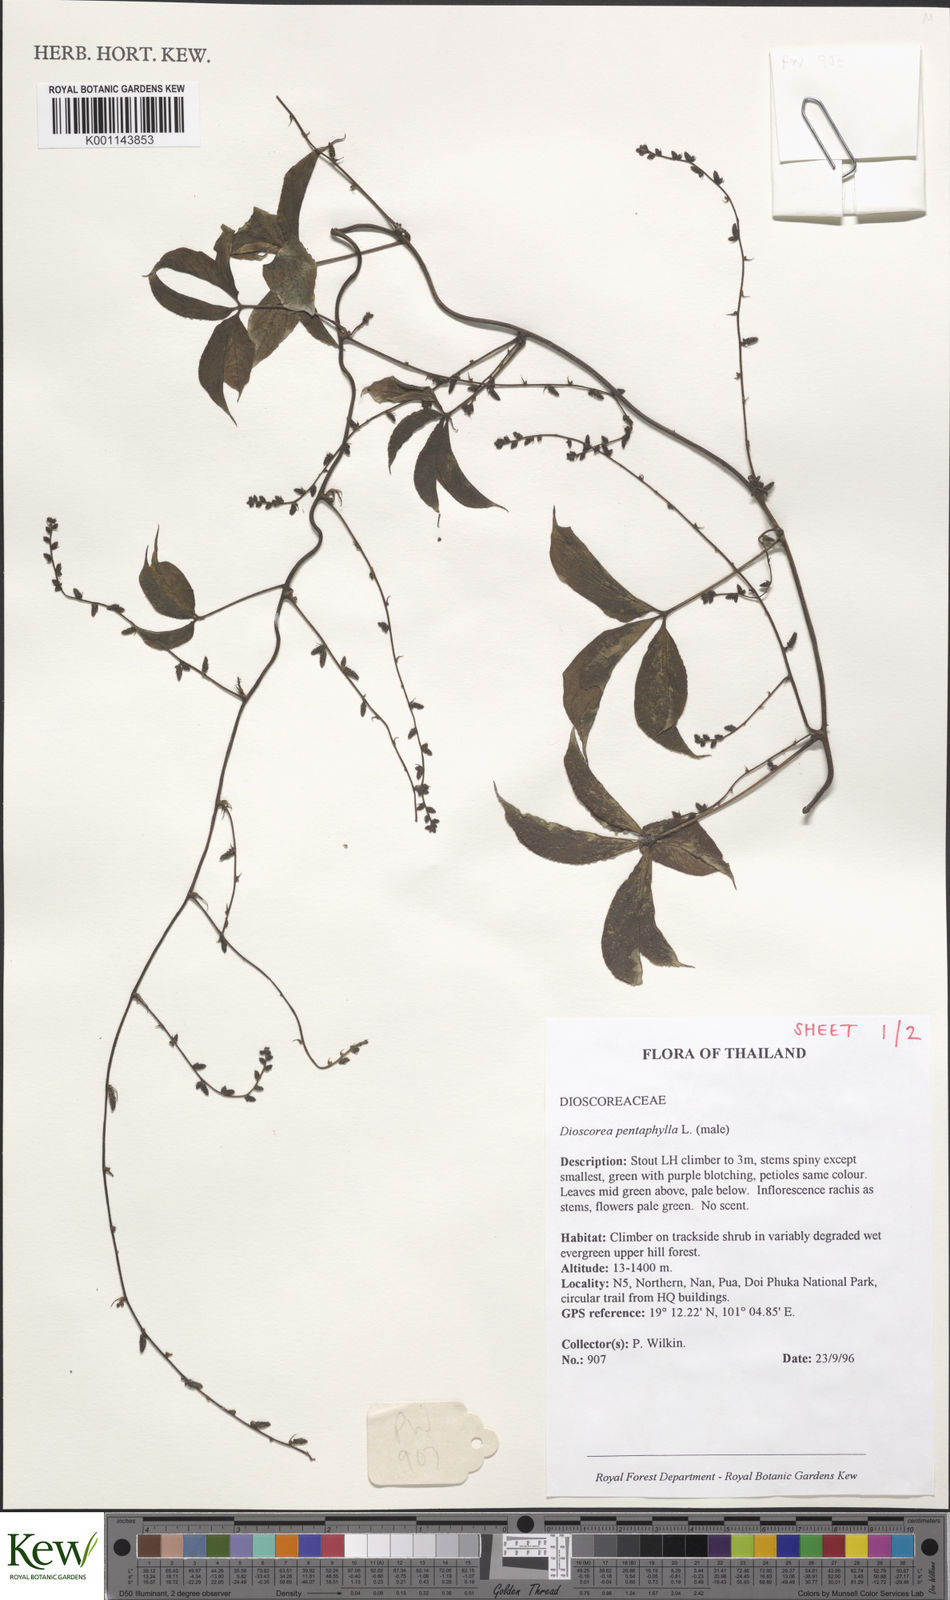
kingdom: Plantae
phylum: Tracheophyta
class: Liliopsida
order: Dioscoreales
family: Dioscoreaceae
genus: Dioscorea
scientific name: Dioscorea pentaphylla
